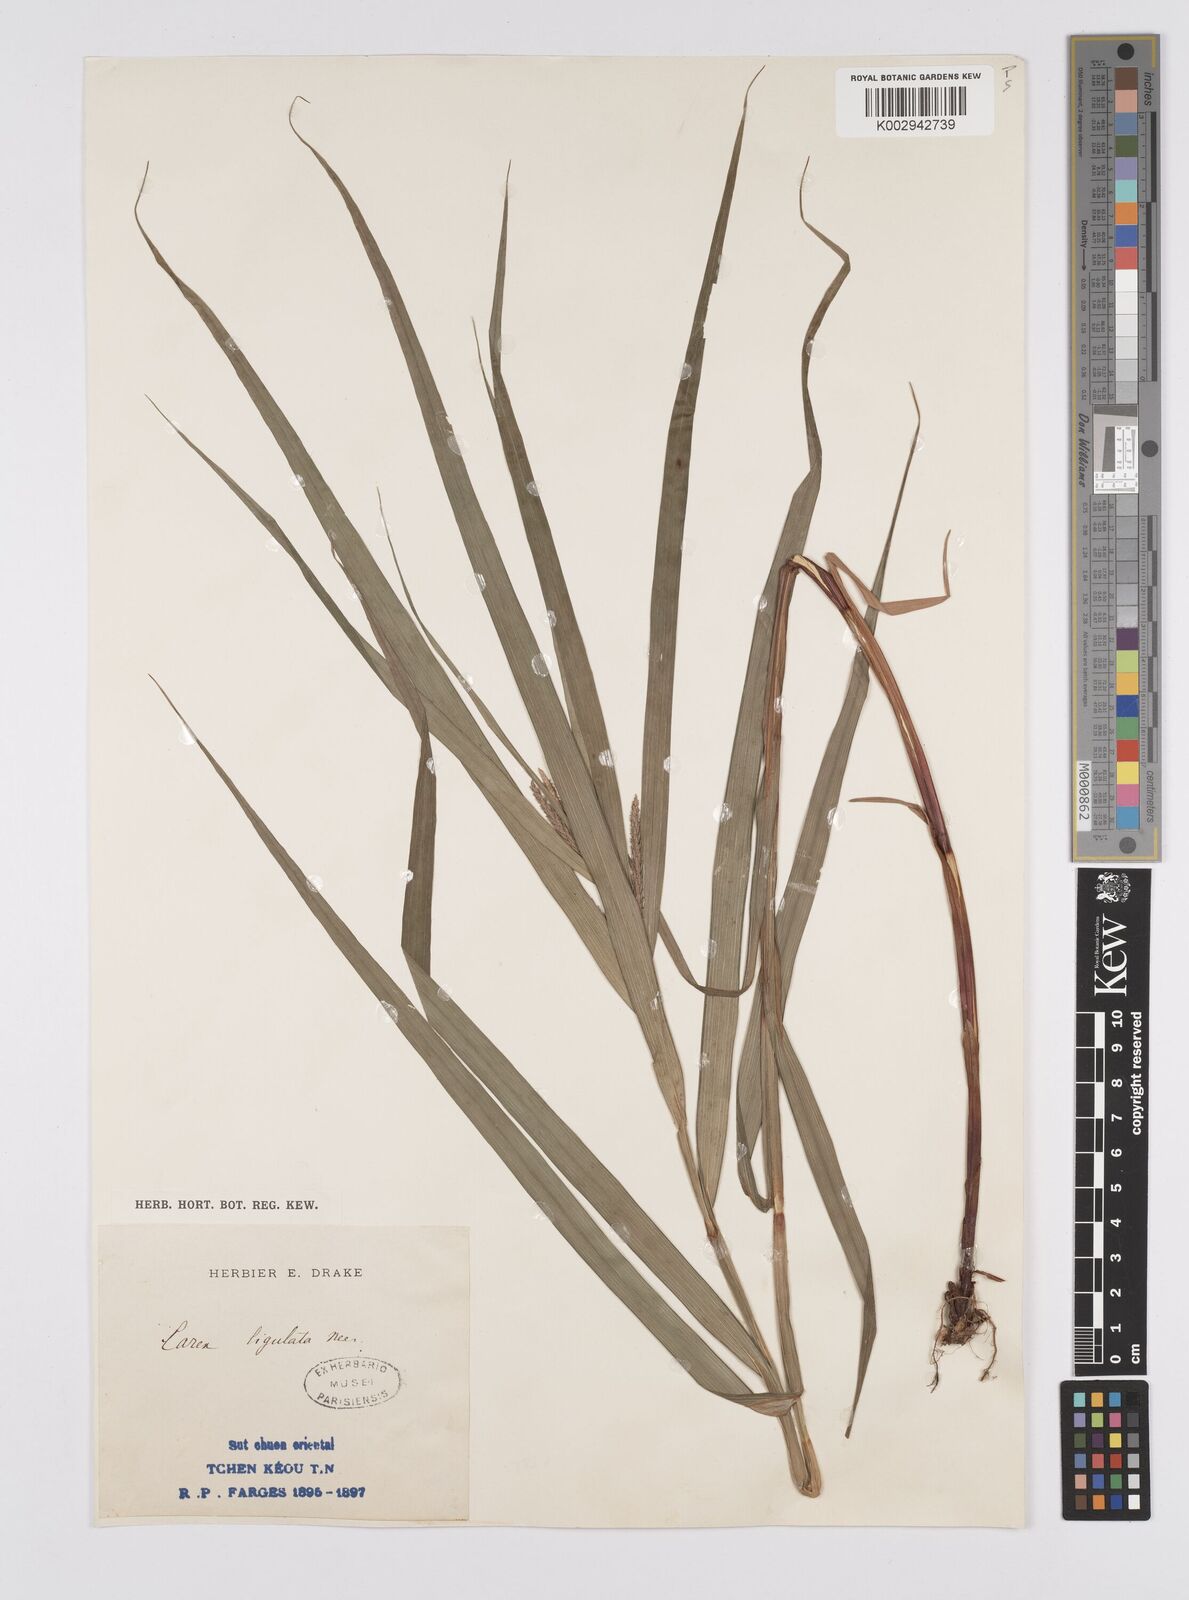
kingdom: Plantae
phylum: Tracheophyta
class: Liliopsida
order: Poales
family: Cyperaceae
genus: Carex
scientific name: Carex ligulata
